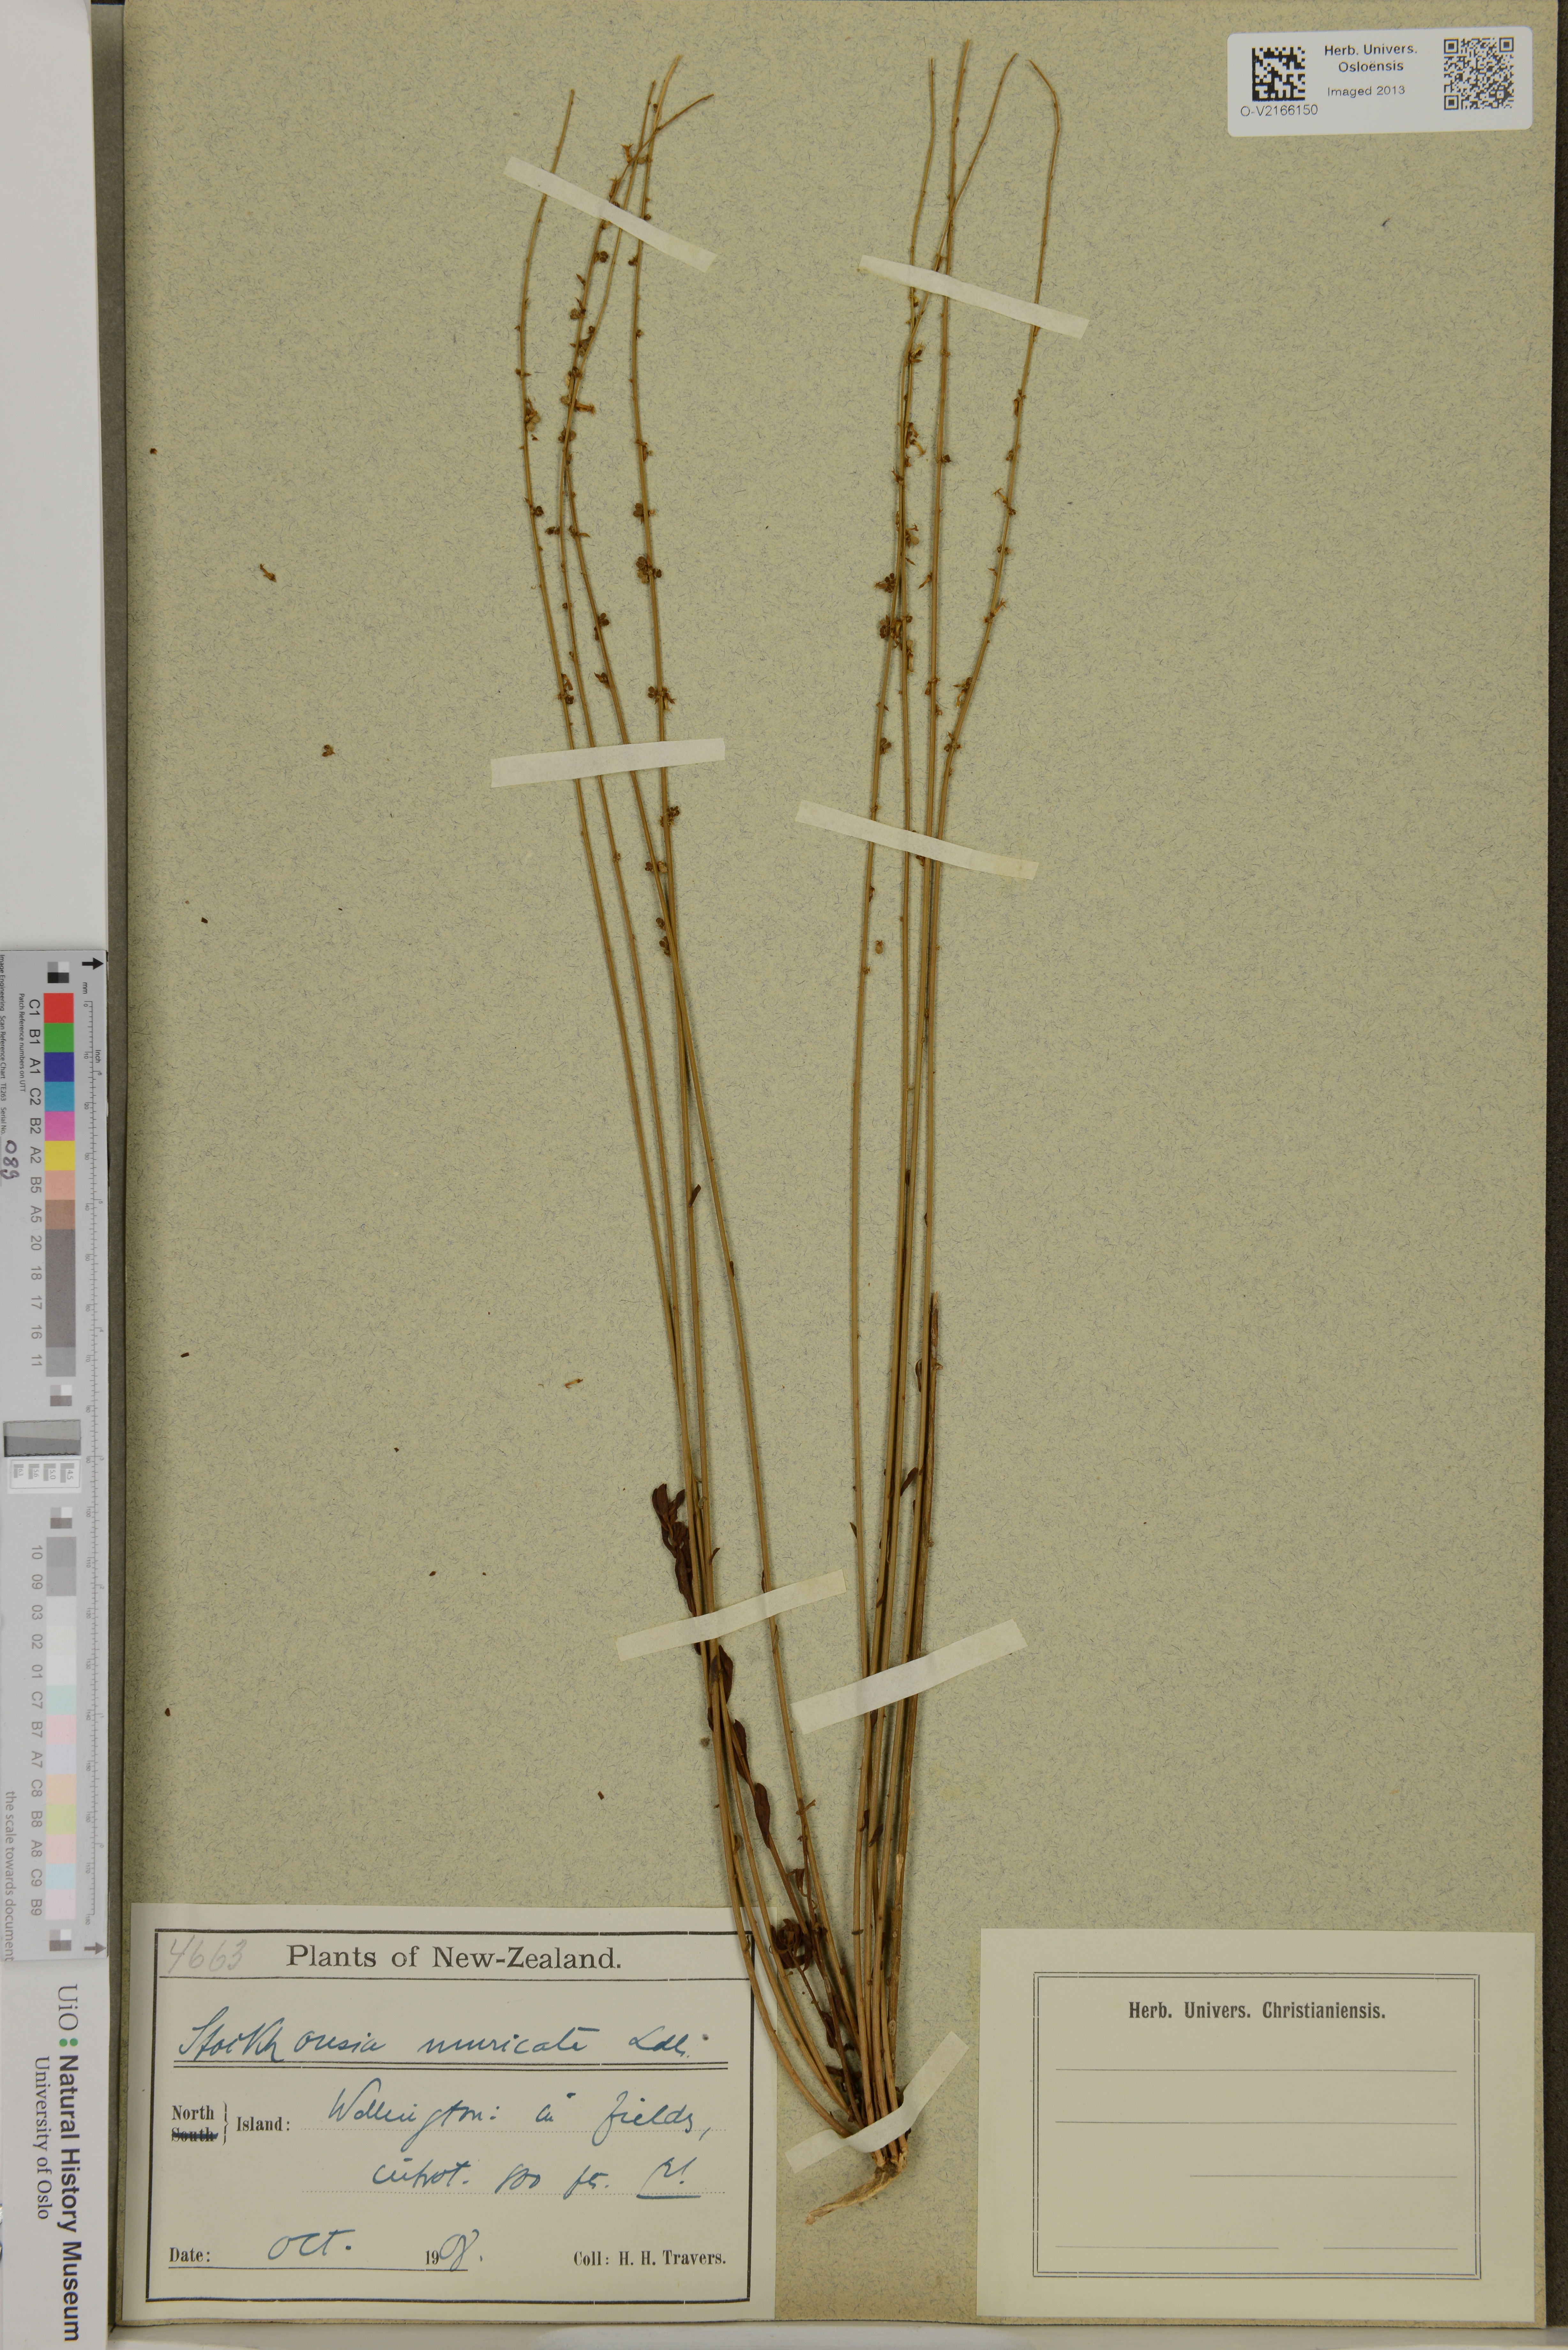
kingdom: Plantae
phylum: Tracheophyta
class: Magnoliopsida
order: Celastrales
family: Celastraceae
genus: Stackhousia
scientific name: Stackhousia muricata
